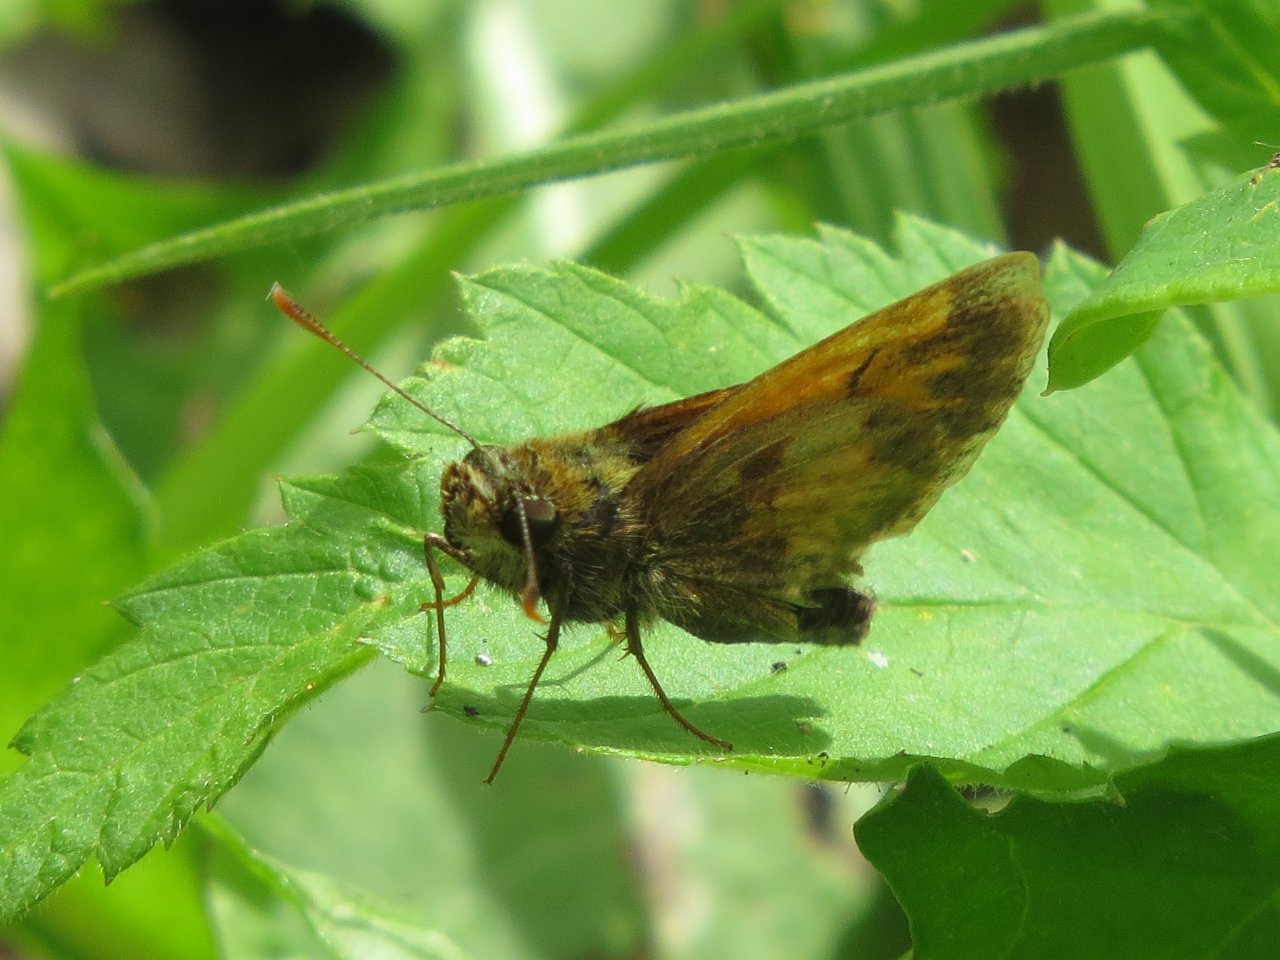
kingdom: Animalia
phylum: Arthropoda
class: Insecta
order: Lepidoptera
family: Hesperiidae
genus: Lon
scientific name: Lon hobomok
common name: Hobomok Skipper
